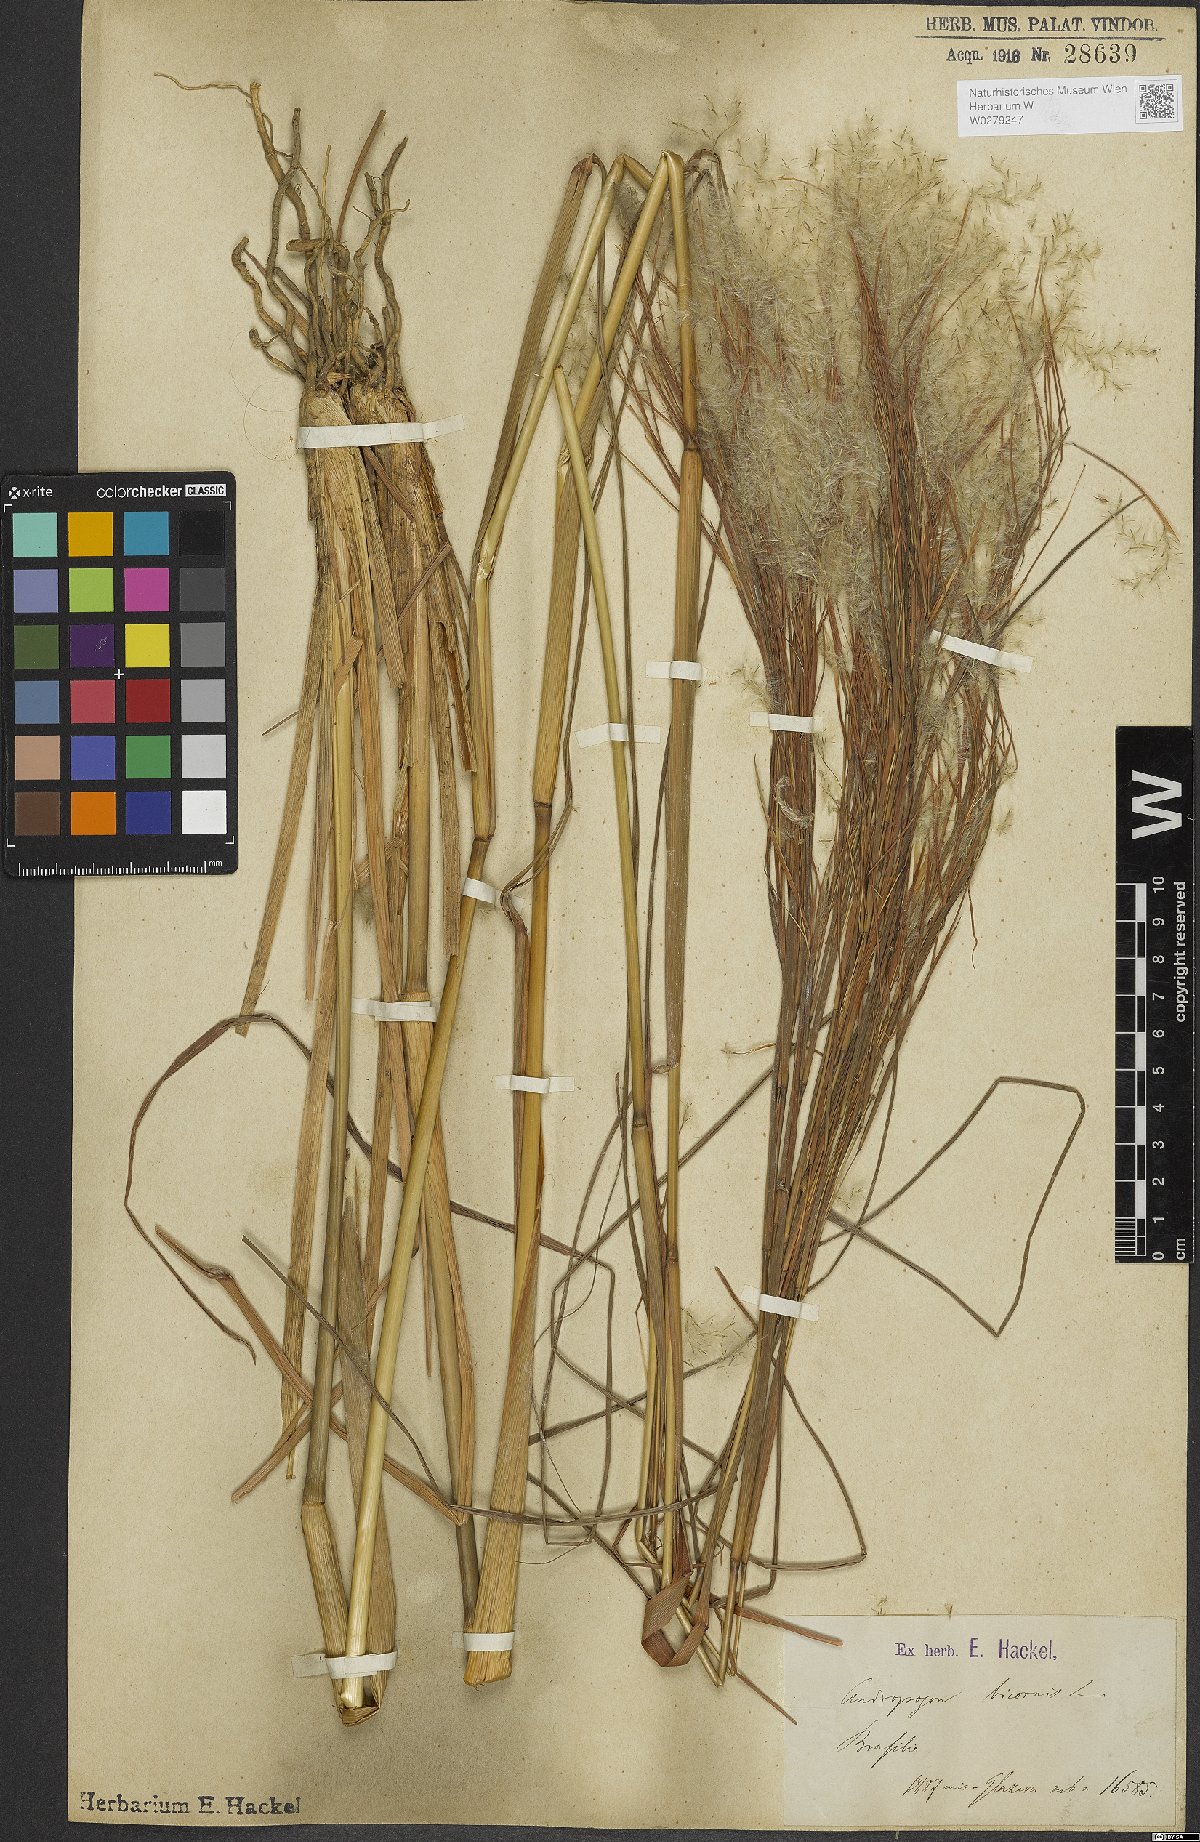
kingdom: Plantae
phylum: Tracheophyta
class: Liliopsida
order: Poales
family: Poaceae
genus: Andropogon
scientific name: Andropogon bicornis
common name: West indian foxtail grass
